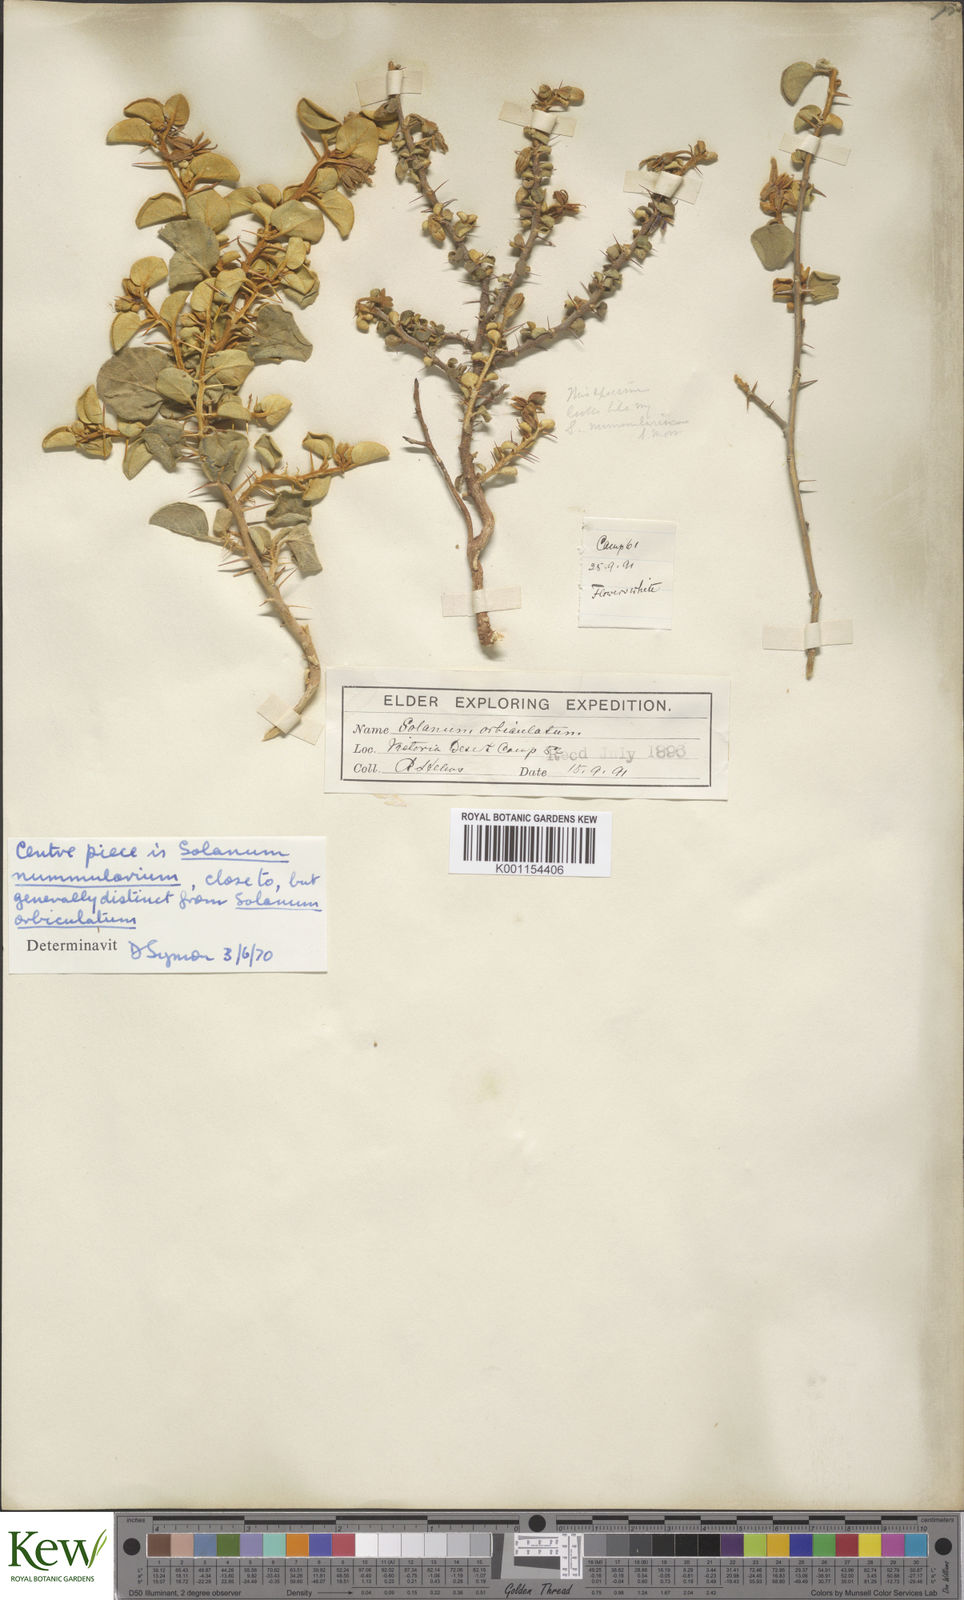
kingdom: Plantae
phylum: Tracheophyta
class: Magnoliopsida
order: Solanales
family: Solanaceae
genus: Solanum
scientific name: Solanum orbiculatum
